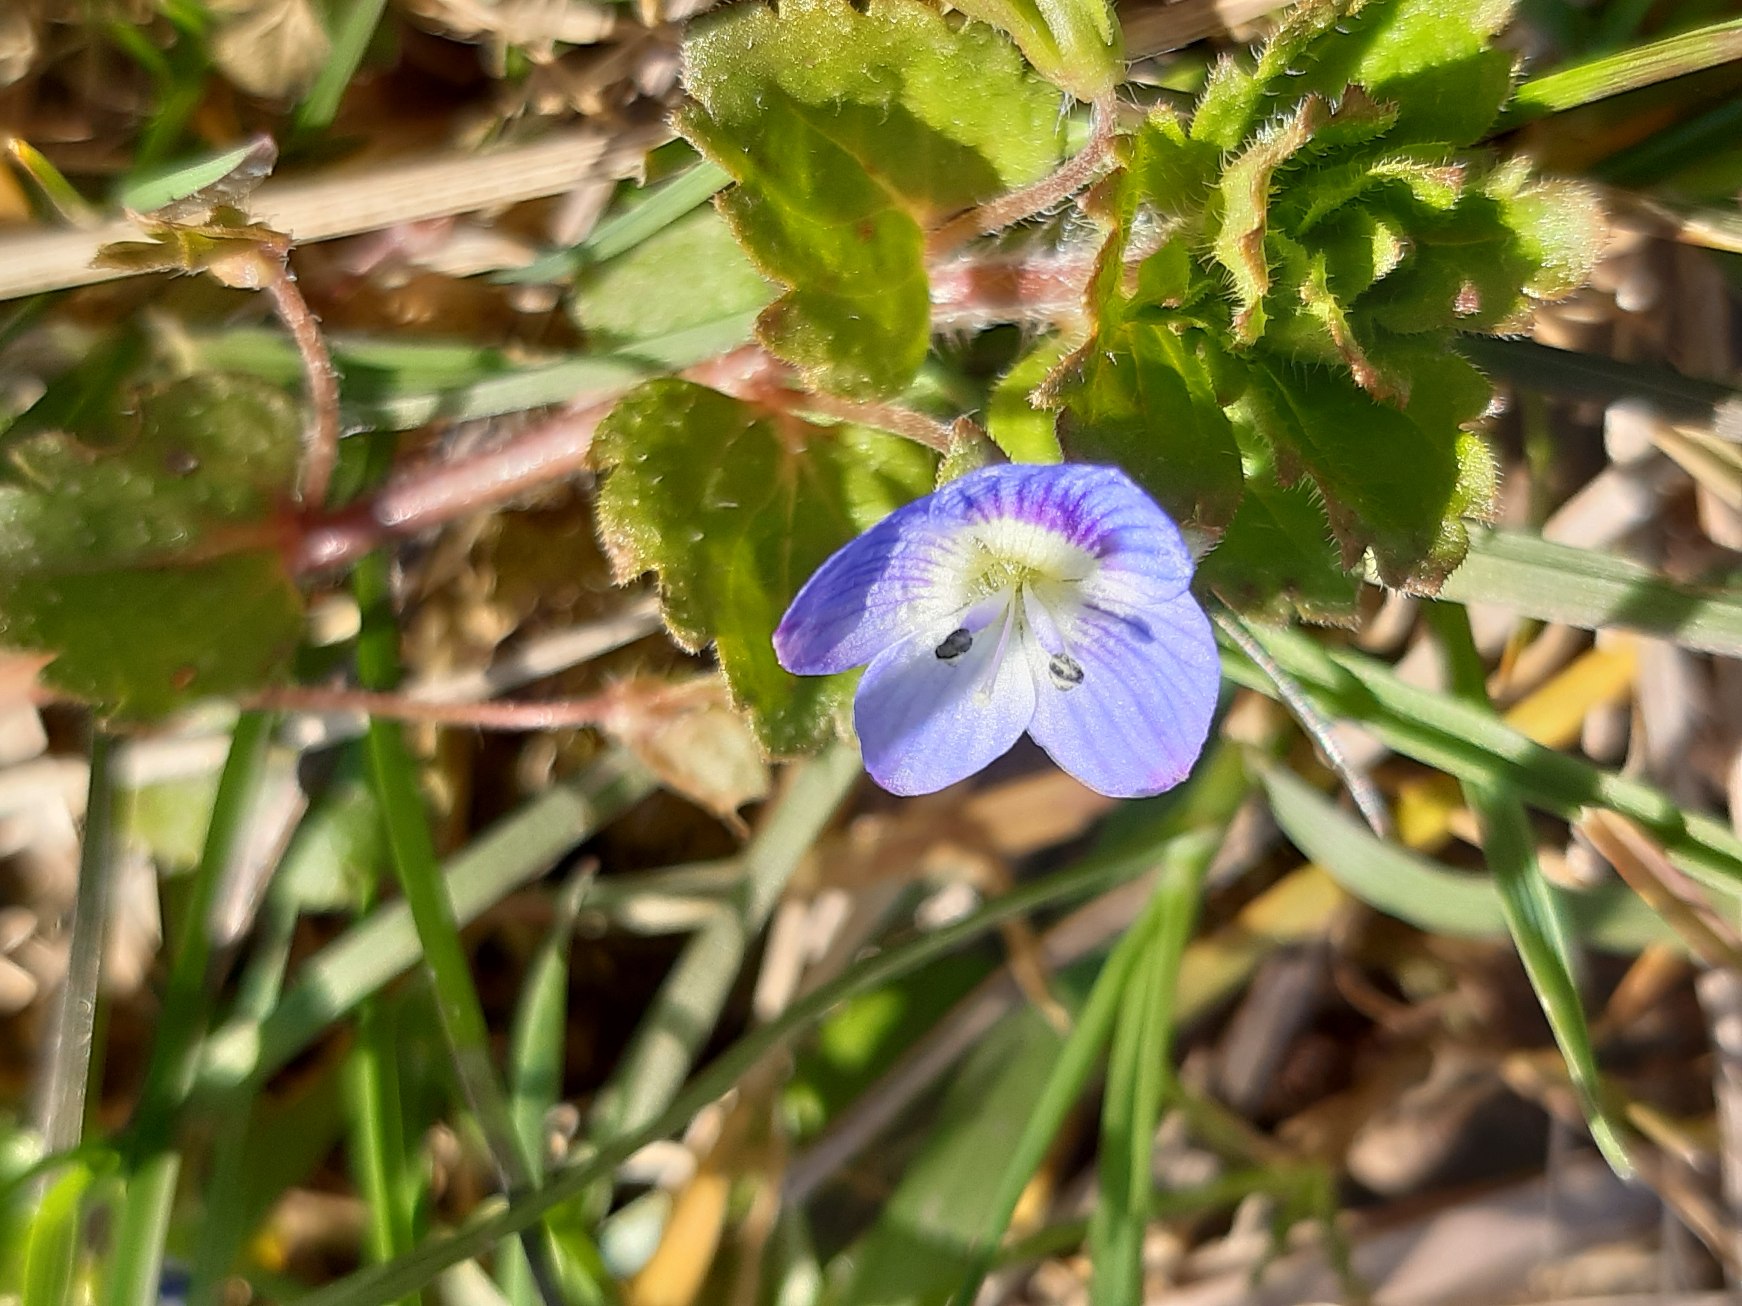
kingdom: Plantae
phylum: Tracheophyta
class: Magnoliopsida
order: Lamiales
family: Plantaginaceae
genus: Veronica
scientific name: Veronica persica
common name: Storkronet ærenpris
